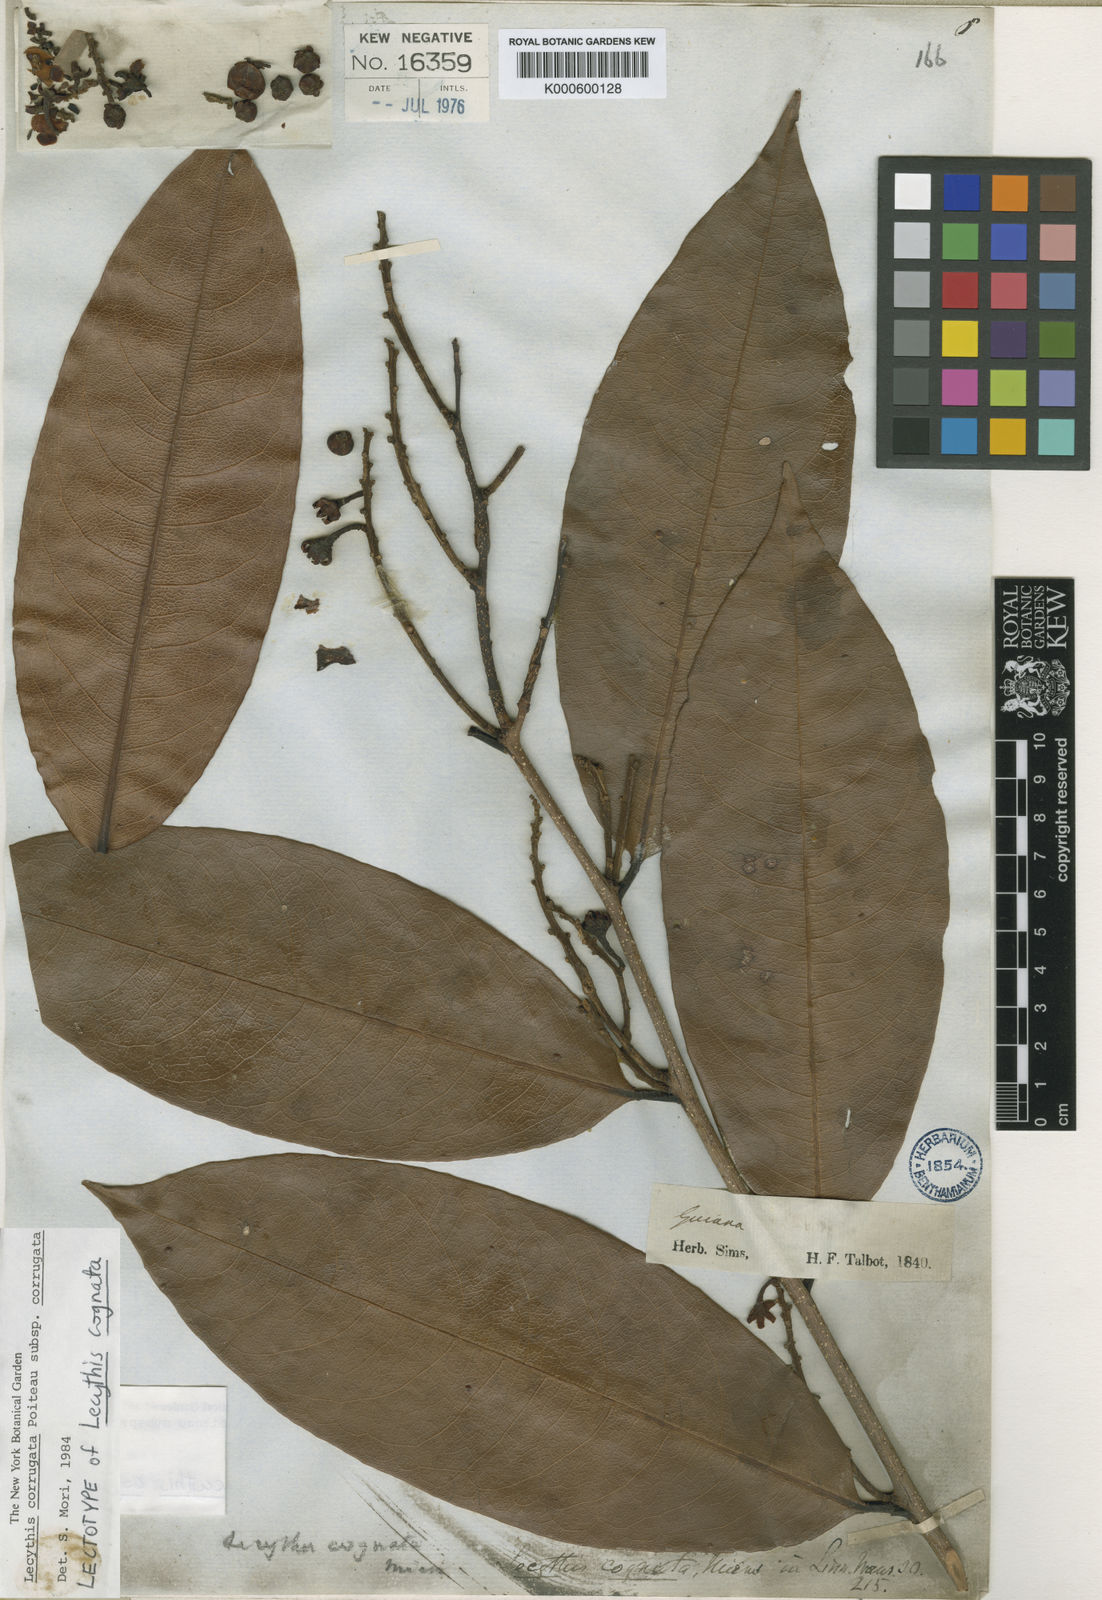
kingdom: Plantae
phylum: Tracheophyta
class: Magnoliopsida
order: Ericales
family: Lecythidaceae
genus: Lecythis
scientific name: Lecythis corrugata
